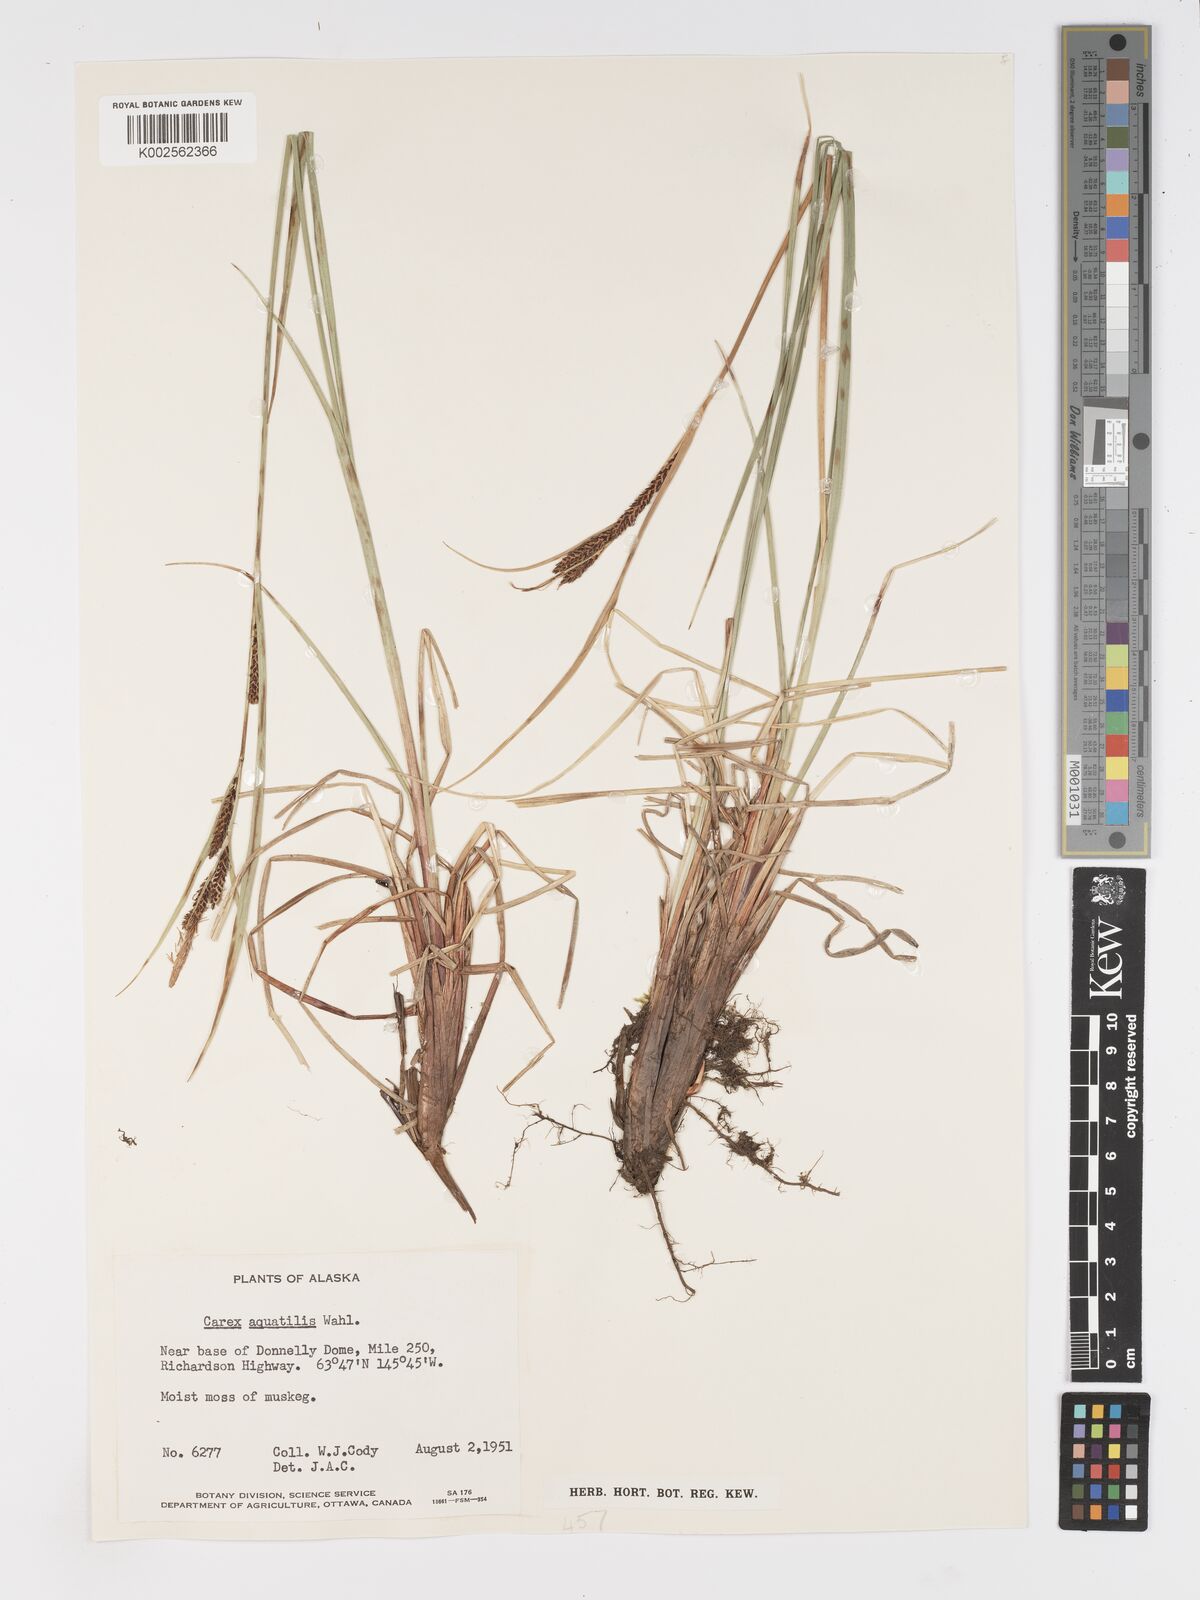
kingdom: Plantae
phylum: Tracheophyta
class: Liliopsida
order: Poales
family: Cyperaceae
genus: Carex
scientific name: Carex aquatilis
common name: Water sedge
